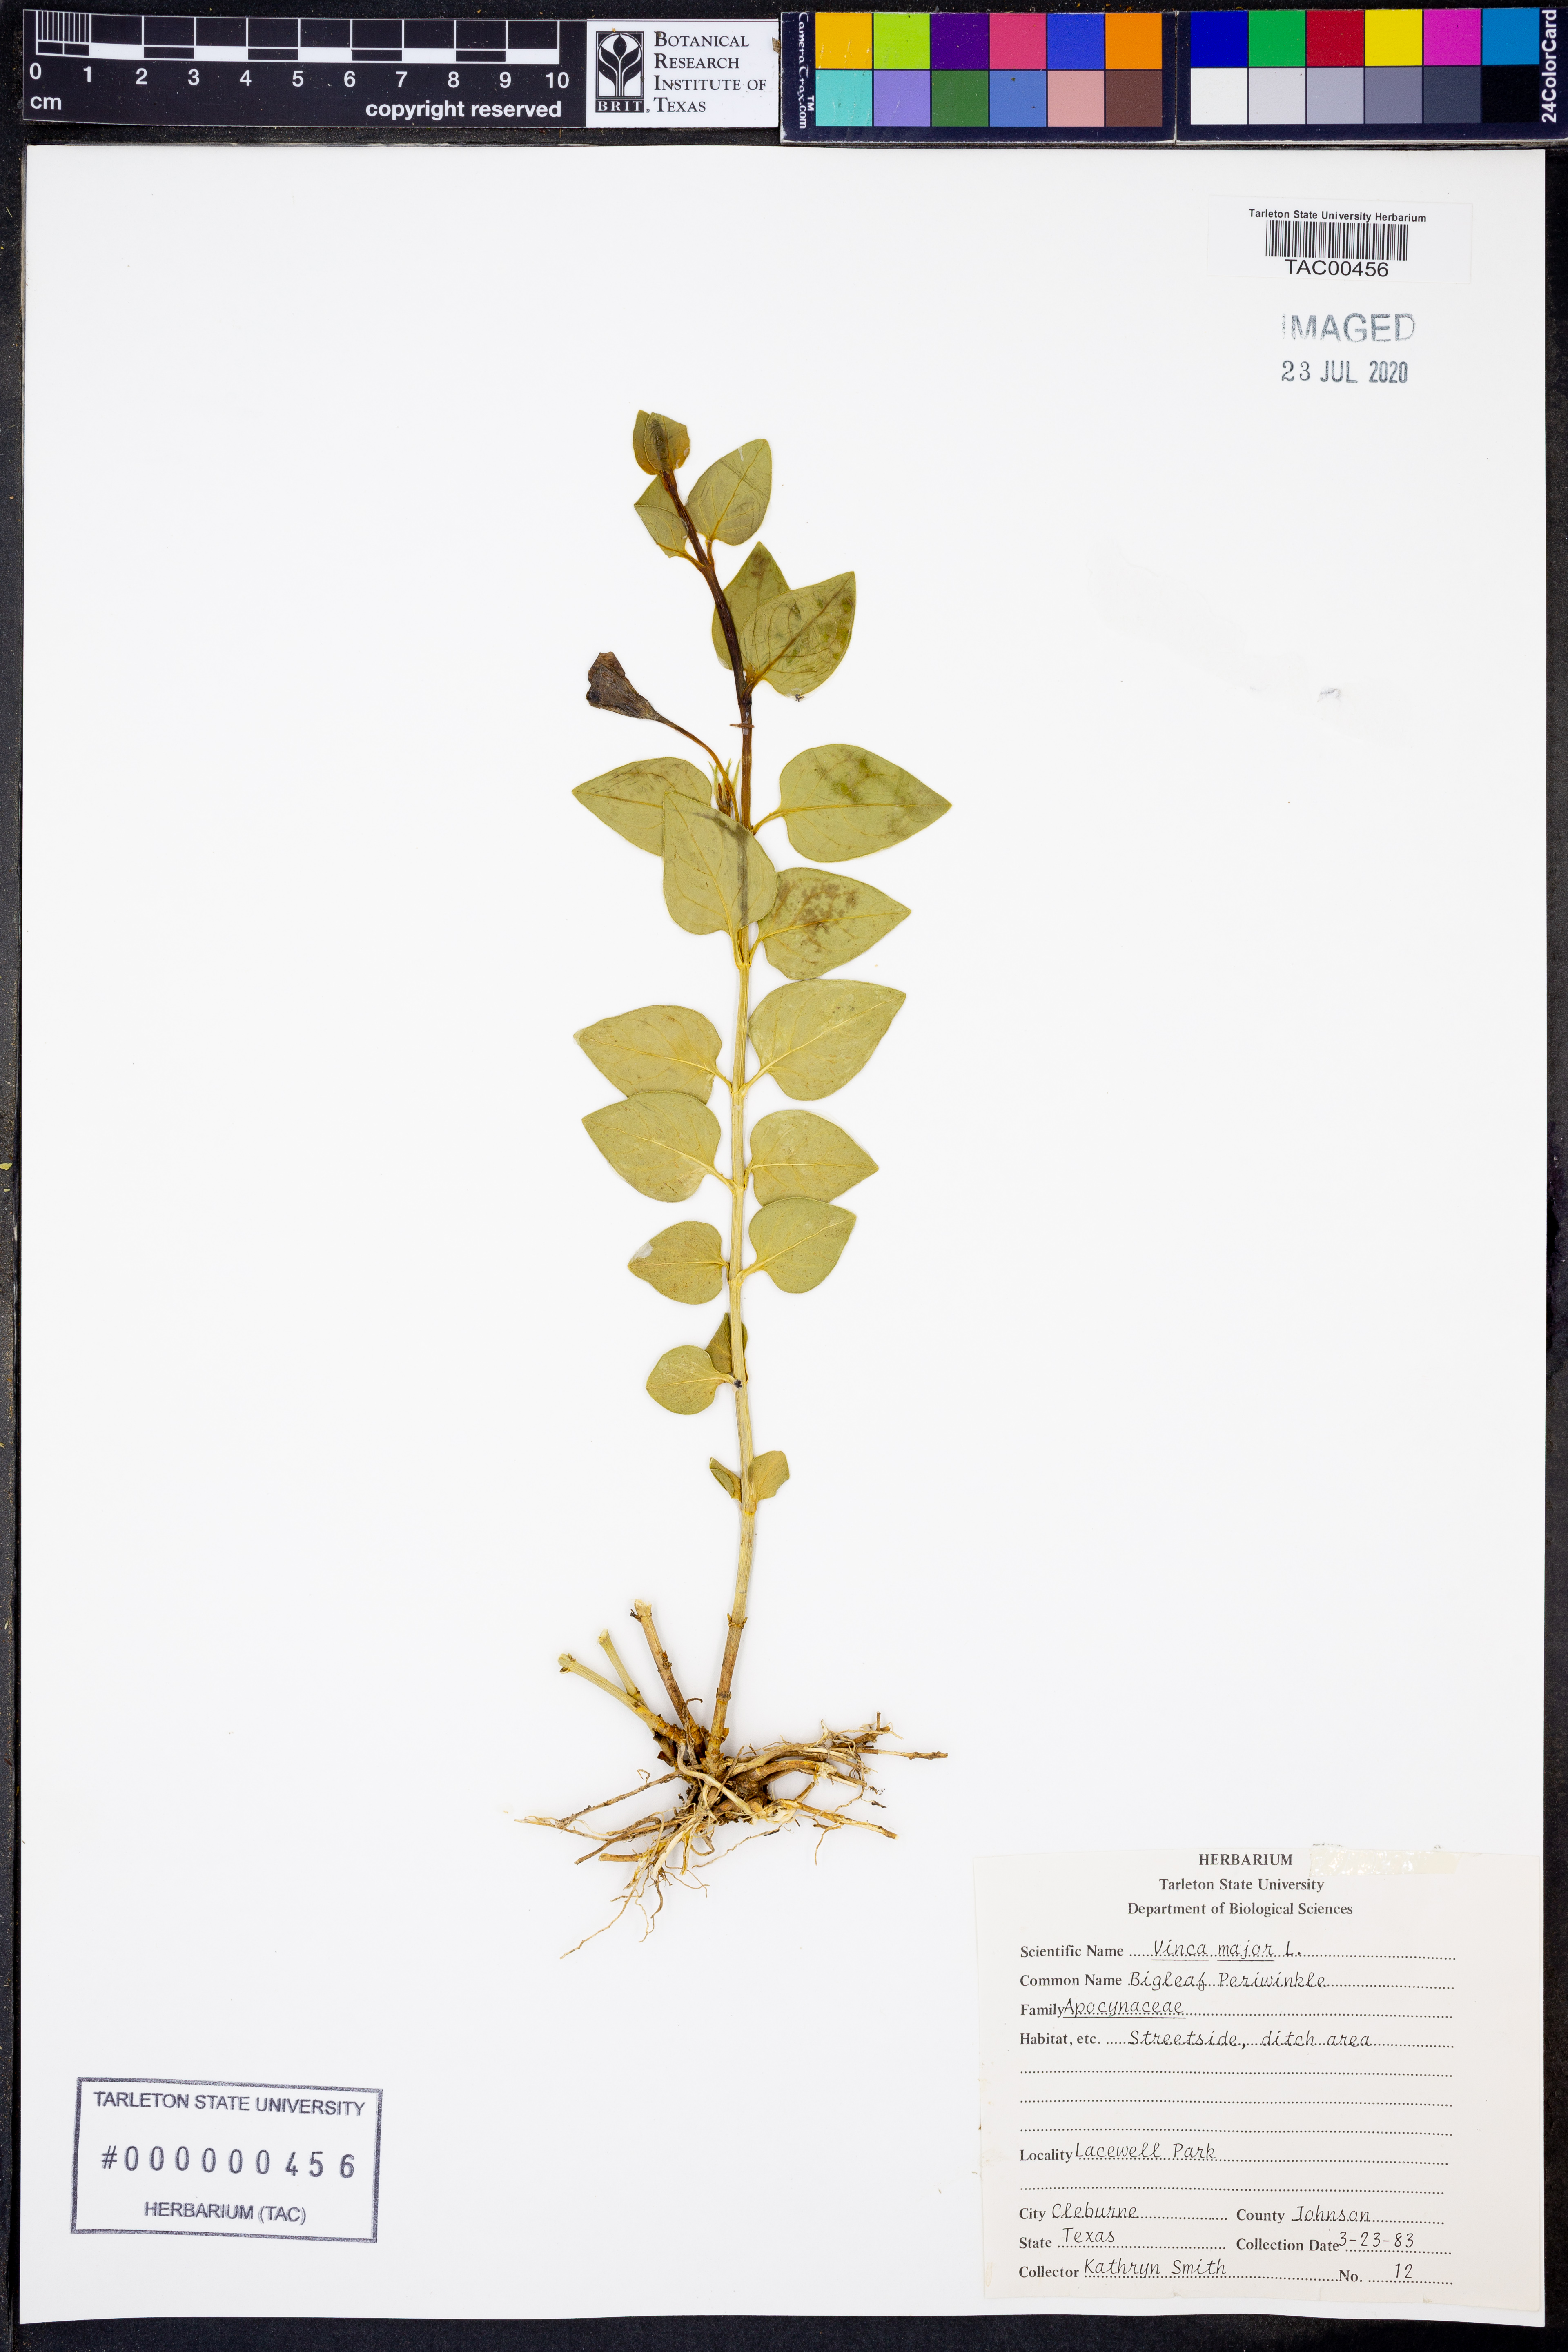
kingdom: Plantae
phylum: Tracheophyta
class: Magnoliopsida
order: Gentianales
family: Apocynaceae
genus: Vinca
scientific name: Vinca major
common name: Greater periwinkle
